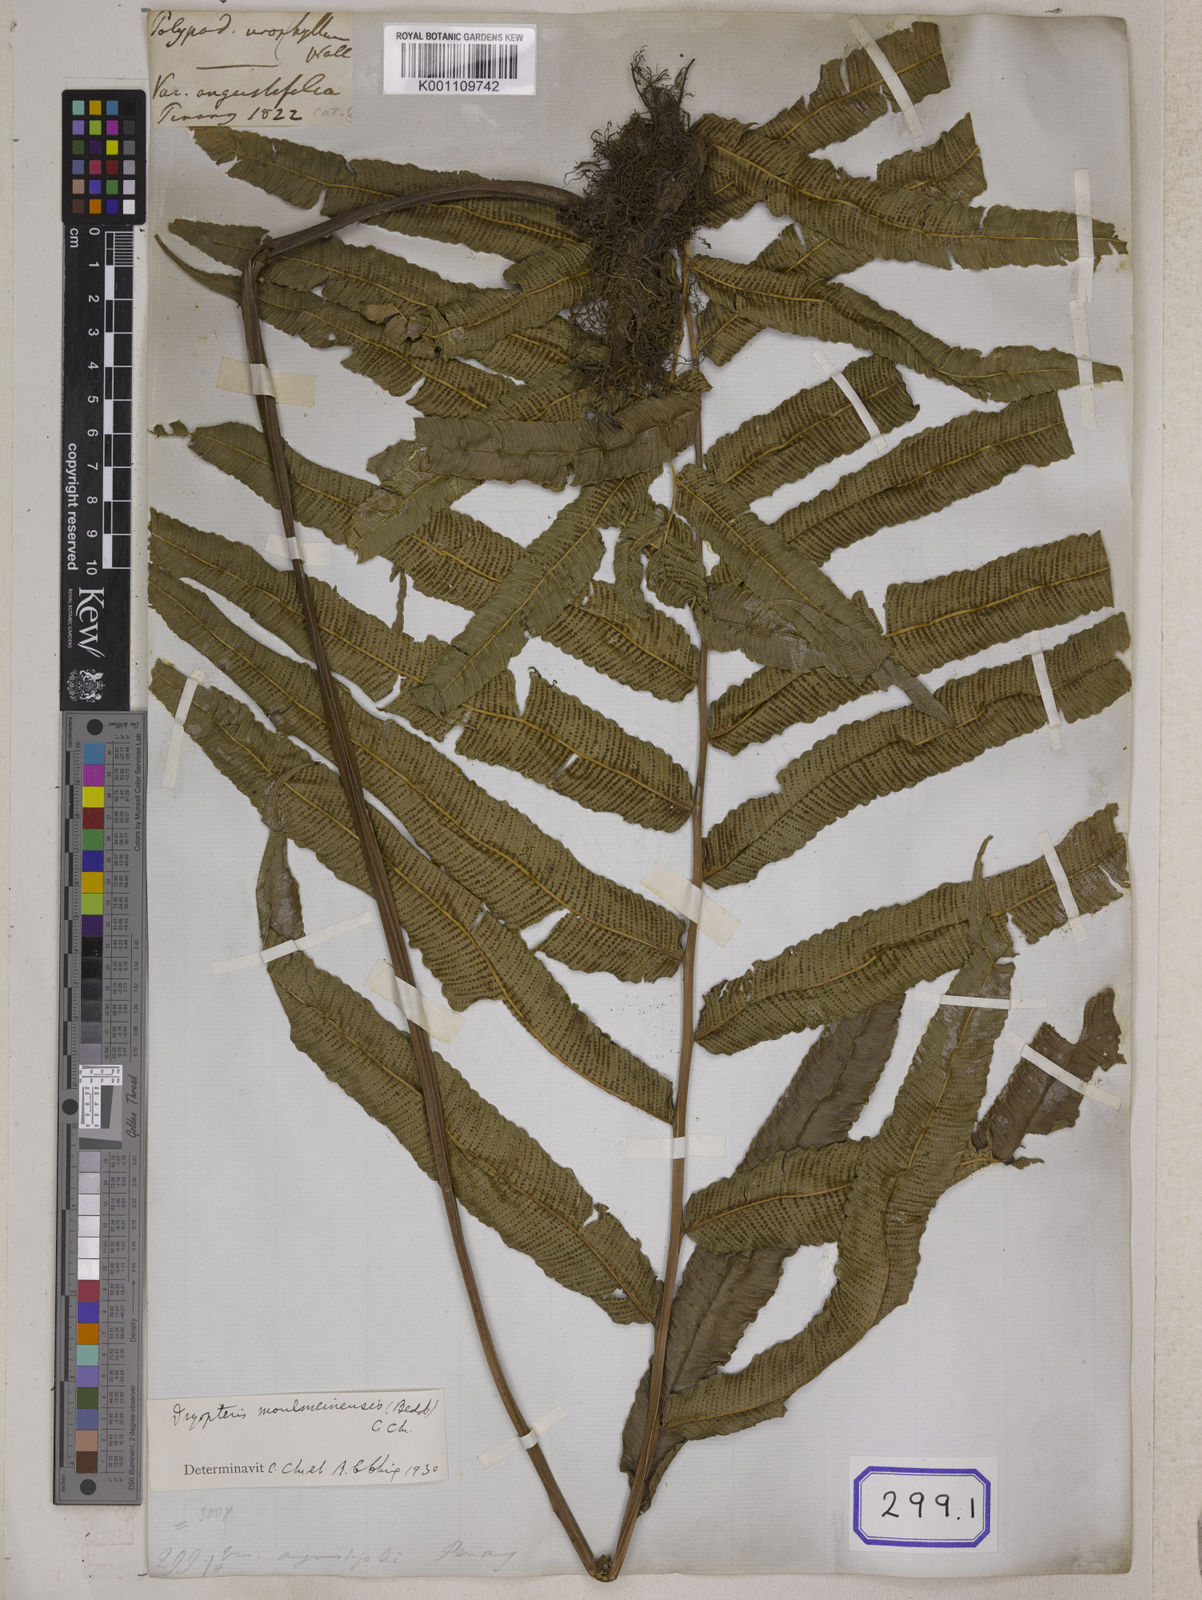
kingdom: Plantae
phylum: Tracheophyta
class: Polypodiopsida
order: Polypodiales
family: Thelypteridaceae
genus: Menisciopsis
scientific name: Menisciopsis penangiana
